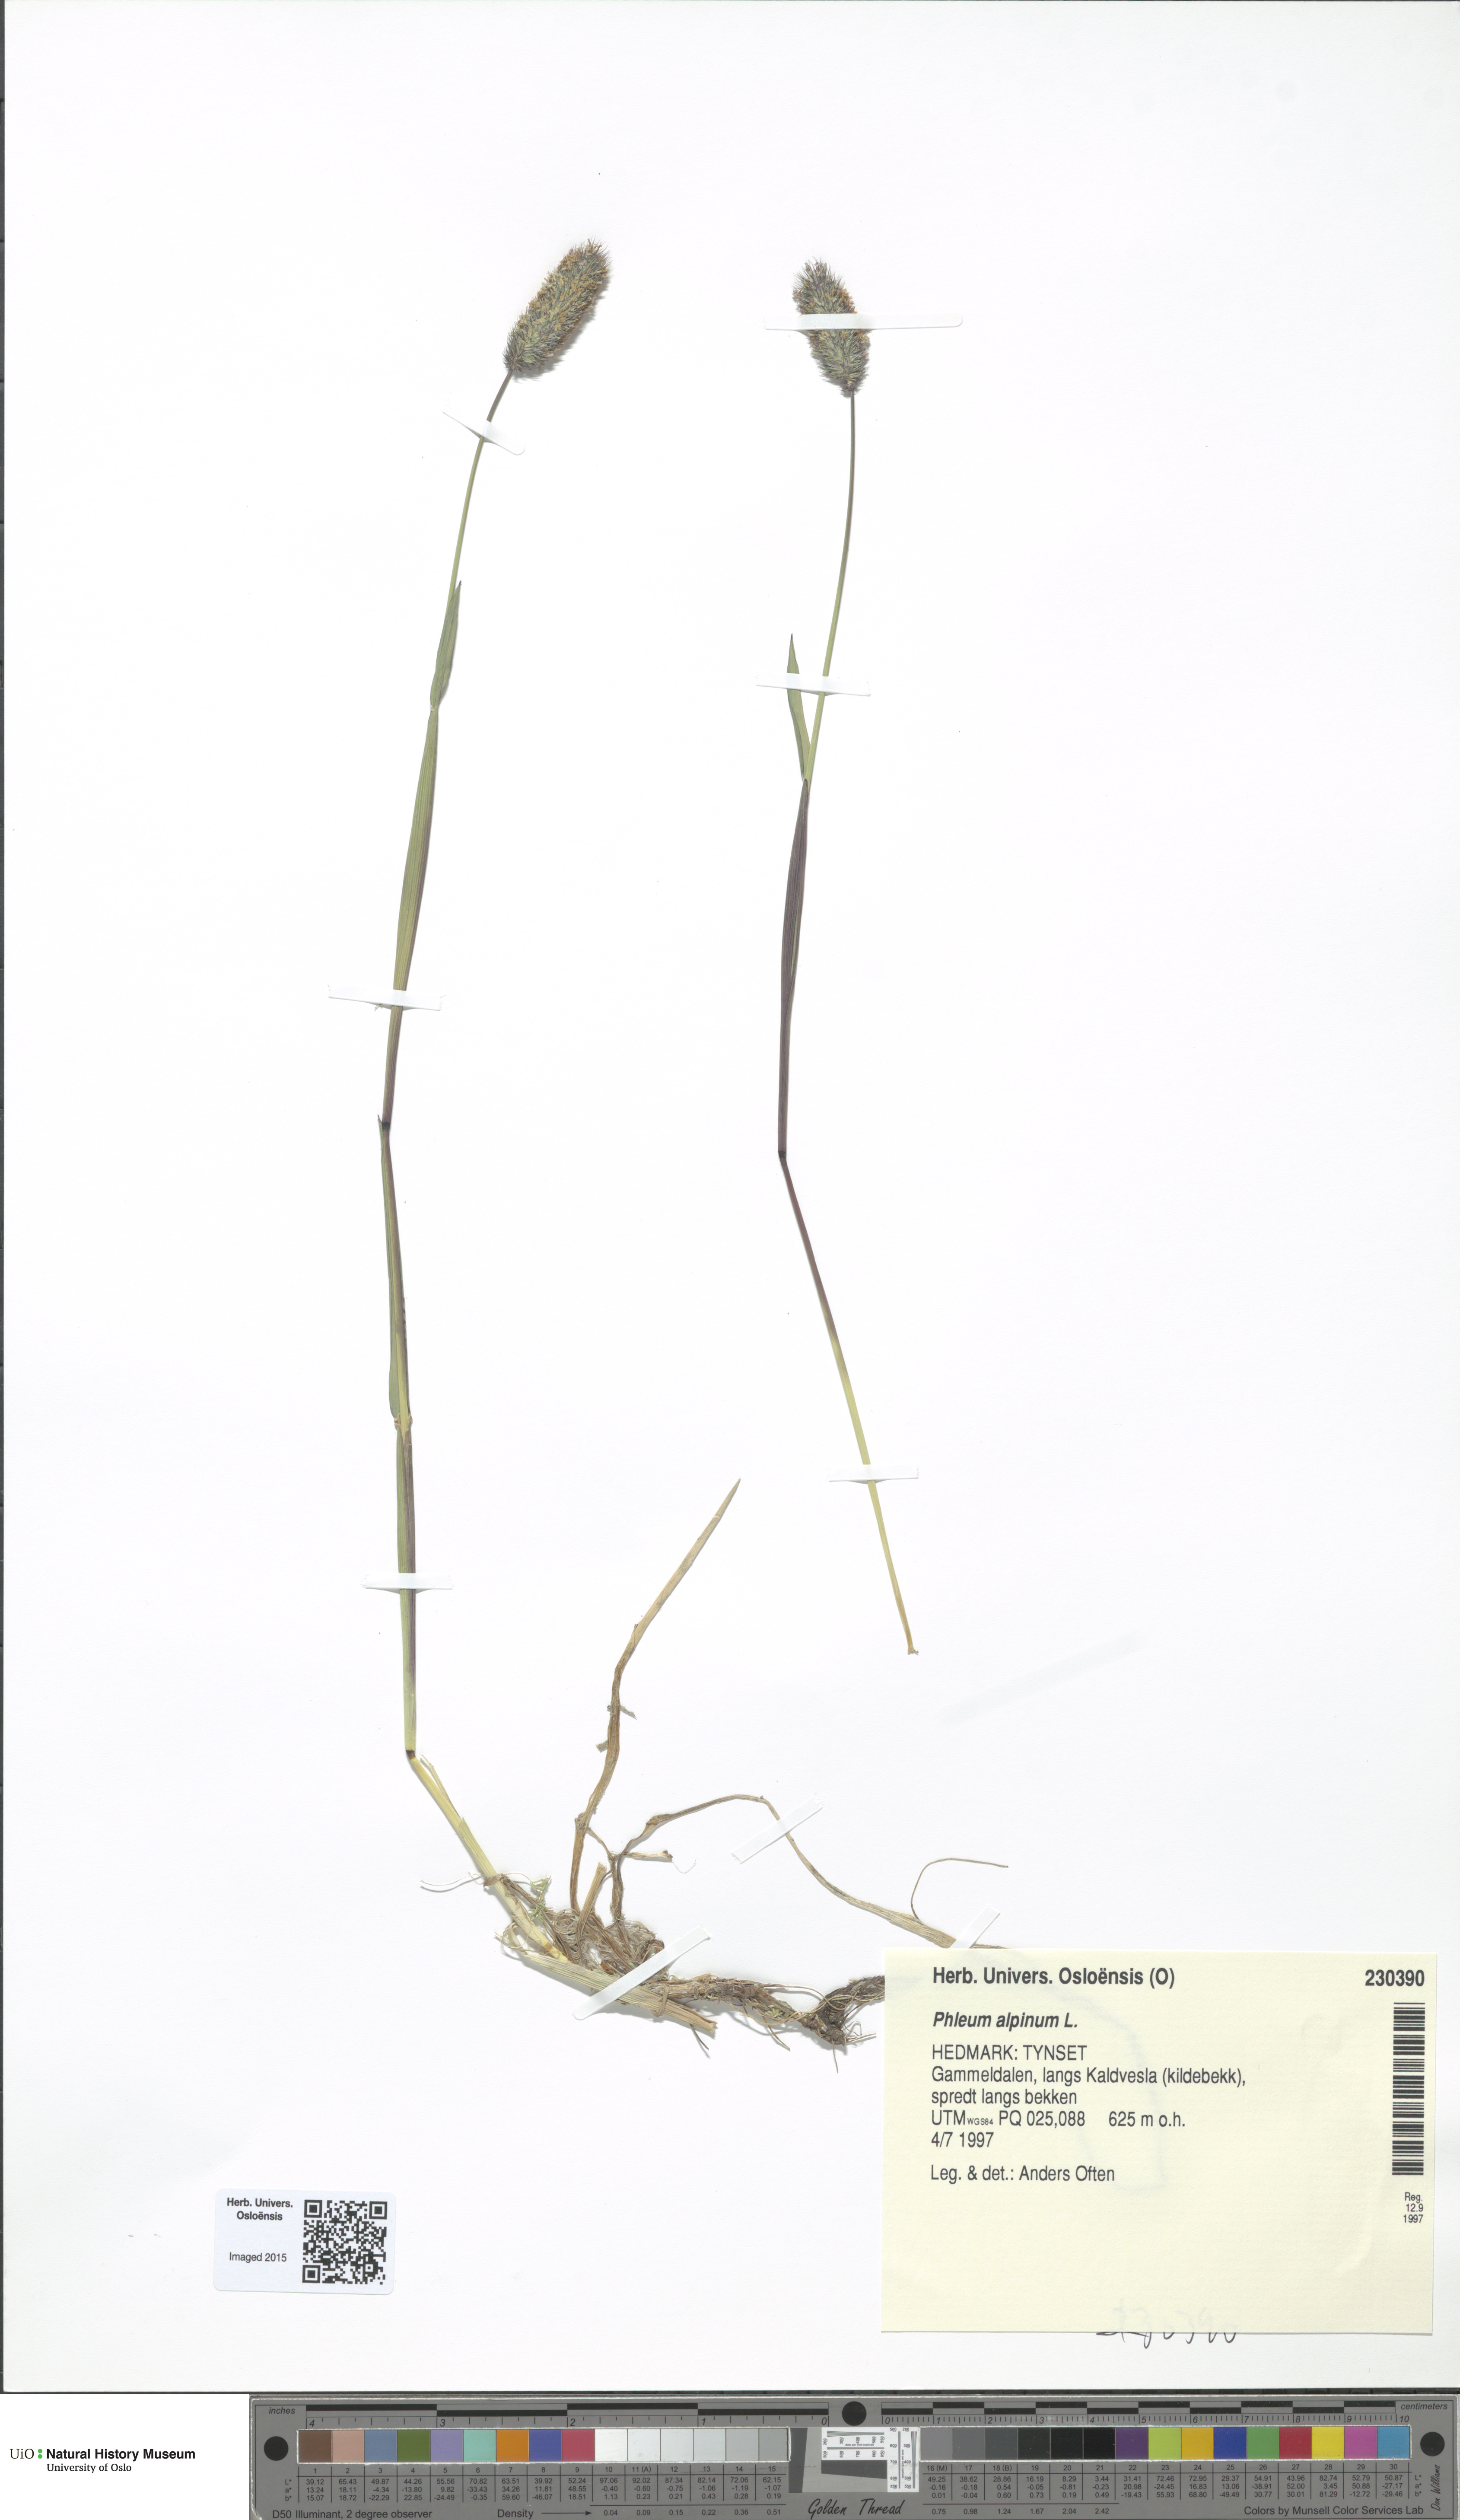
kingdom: Plantae
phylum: Tracheophyta
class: Liliopsida
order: Poales
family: Poaceae
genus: Phleum
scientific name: Phleum alpinum
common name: Alpine cat's-tail
